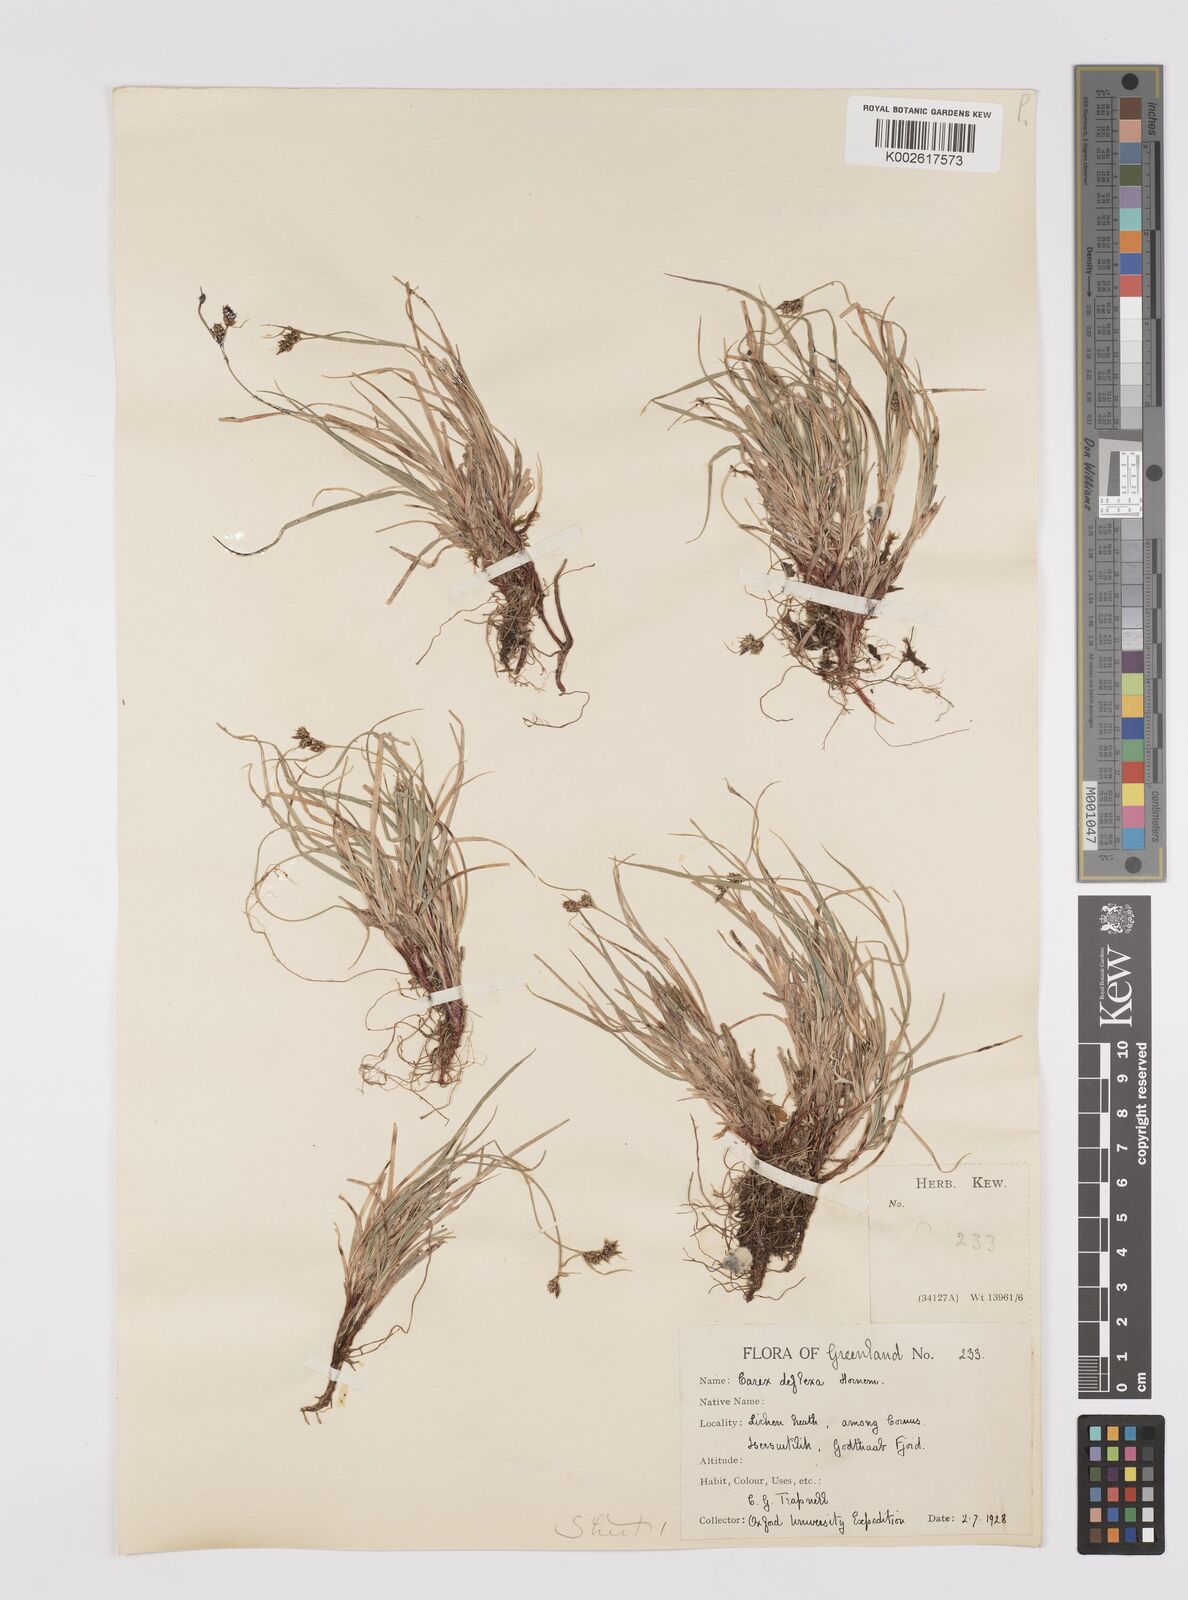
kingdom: Plantae
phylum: Tracheophyta
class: Liliopsida
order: Poales
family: Cyperaceae
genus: Carex
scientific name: Carex deflexa
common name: Bent northern sedge
